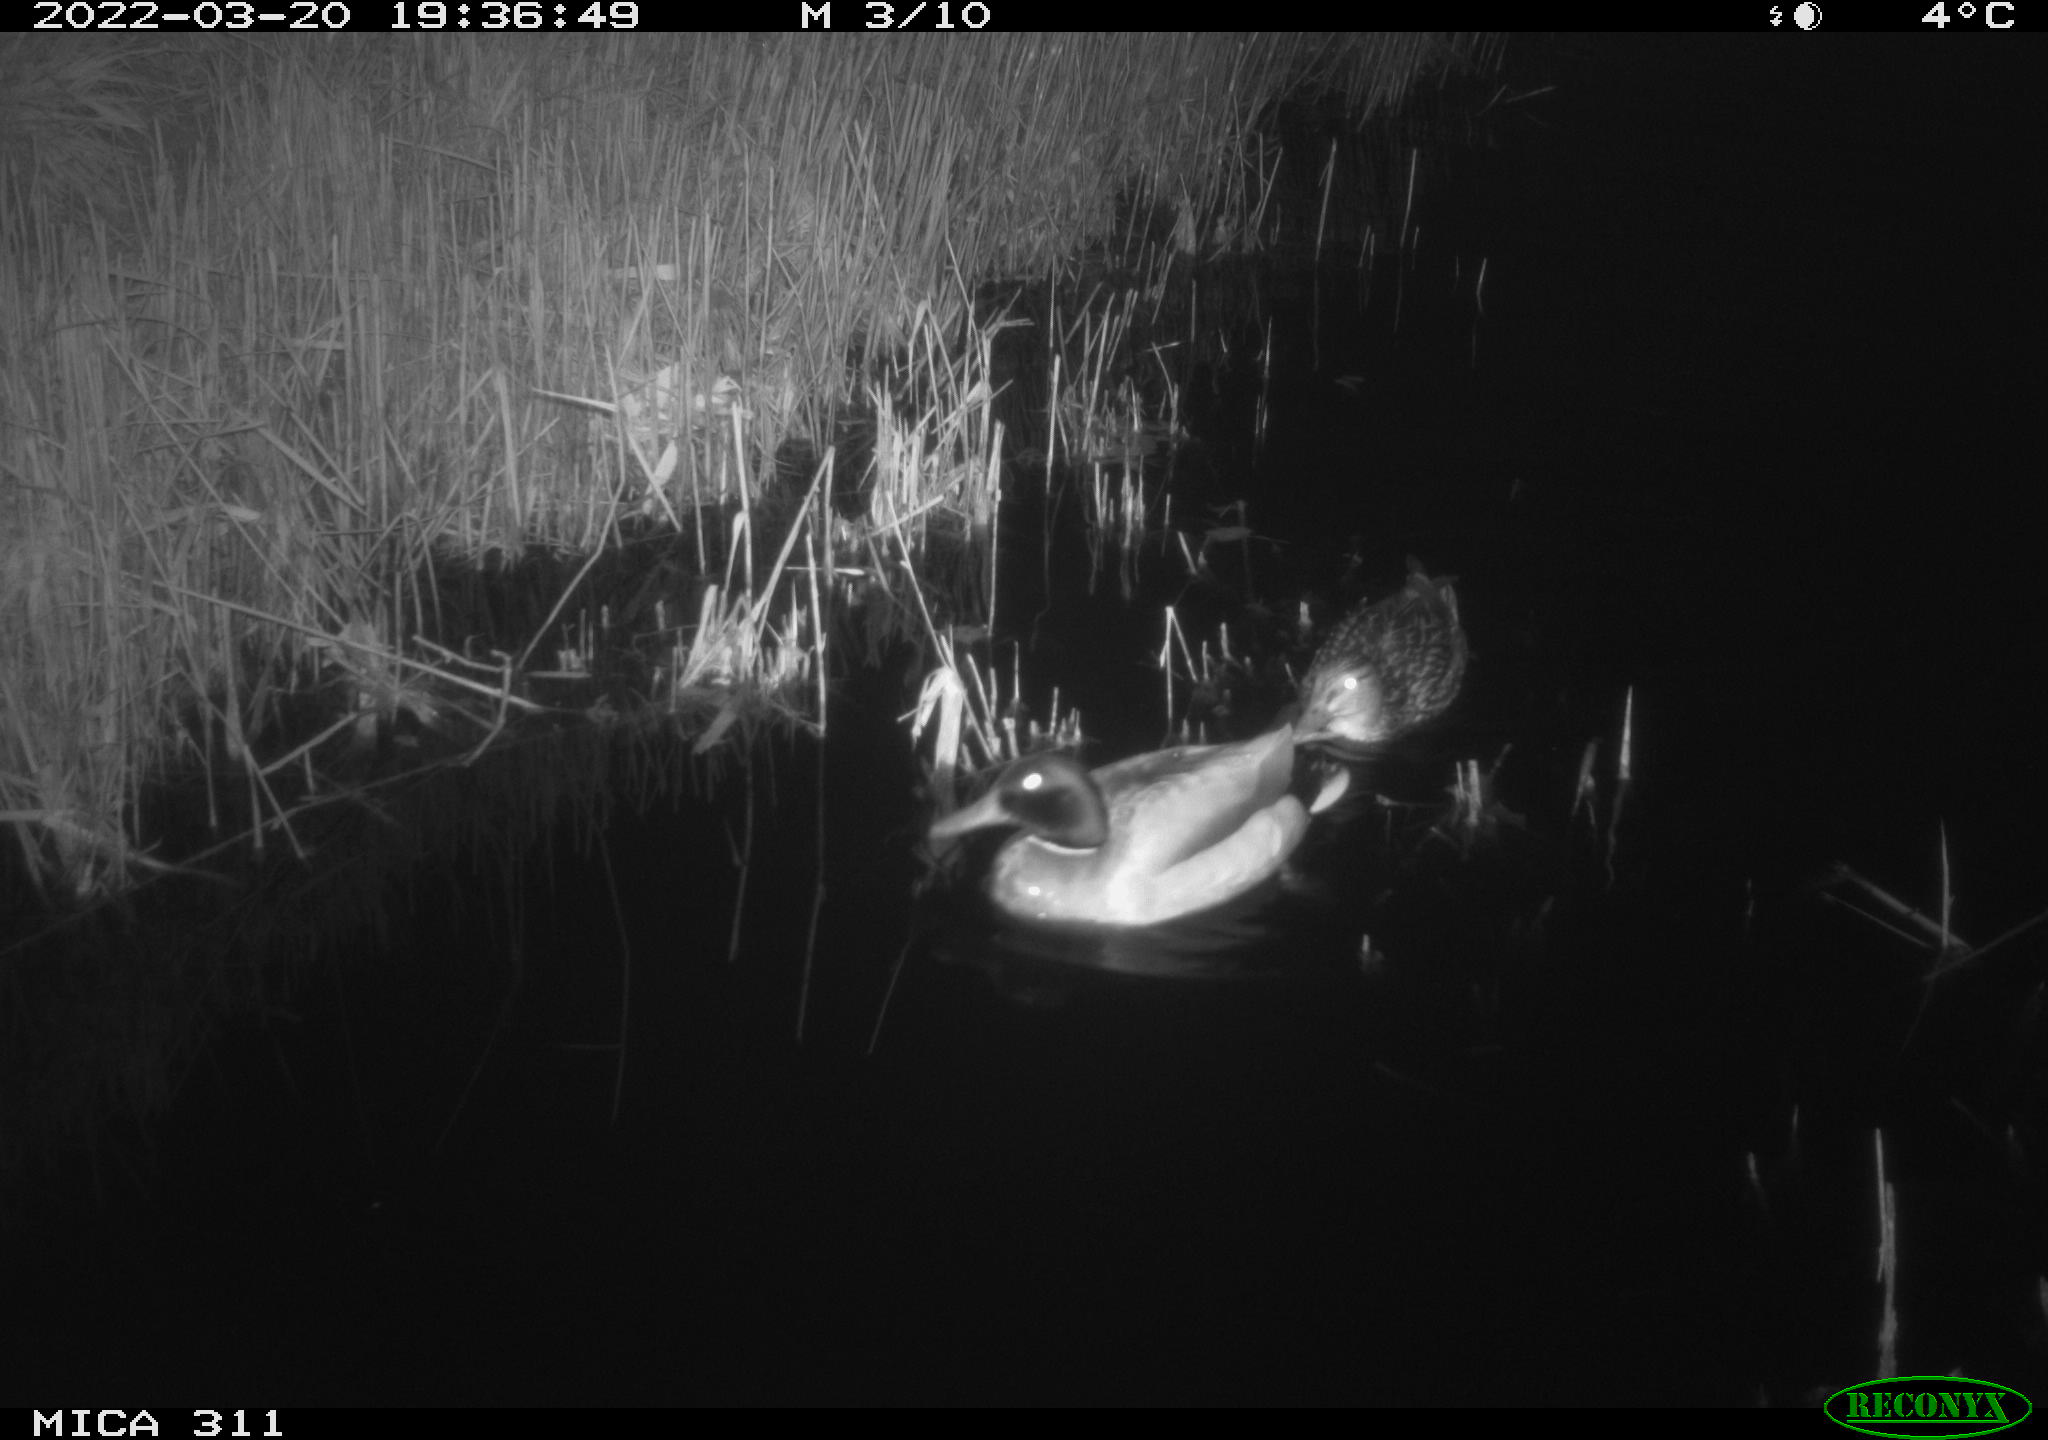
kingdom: Animalia
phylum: Chordata
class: Aves
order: Anseriformes
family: Anatidae
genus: Anas
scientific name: Anas
